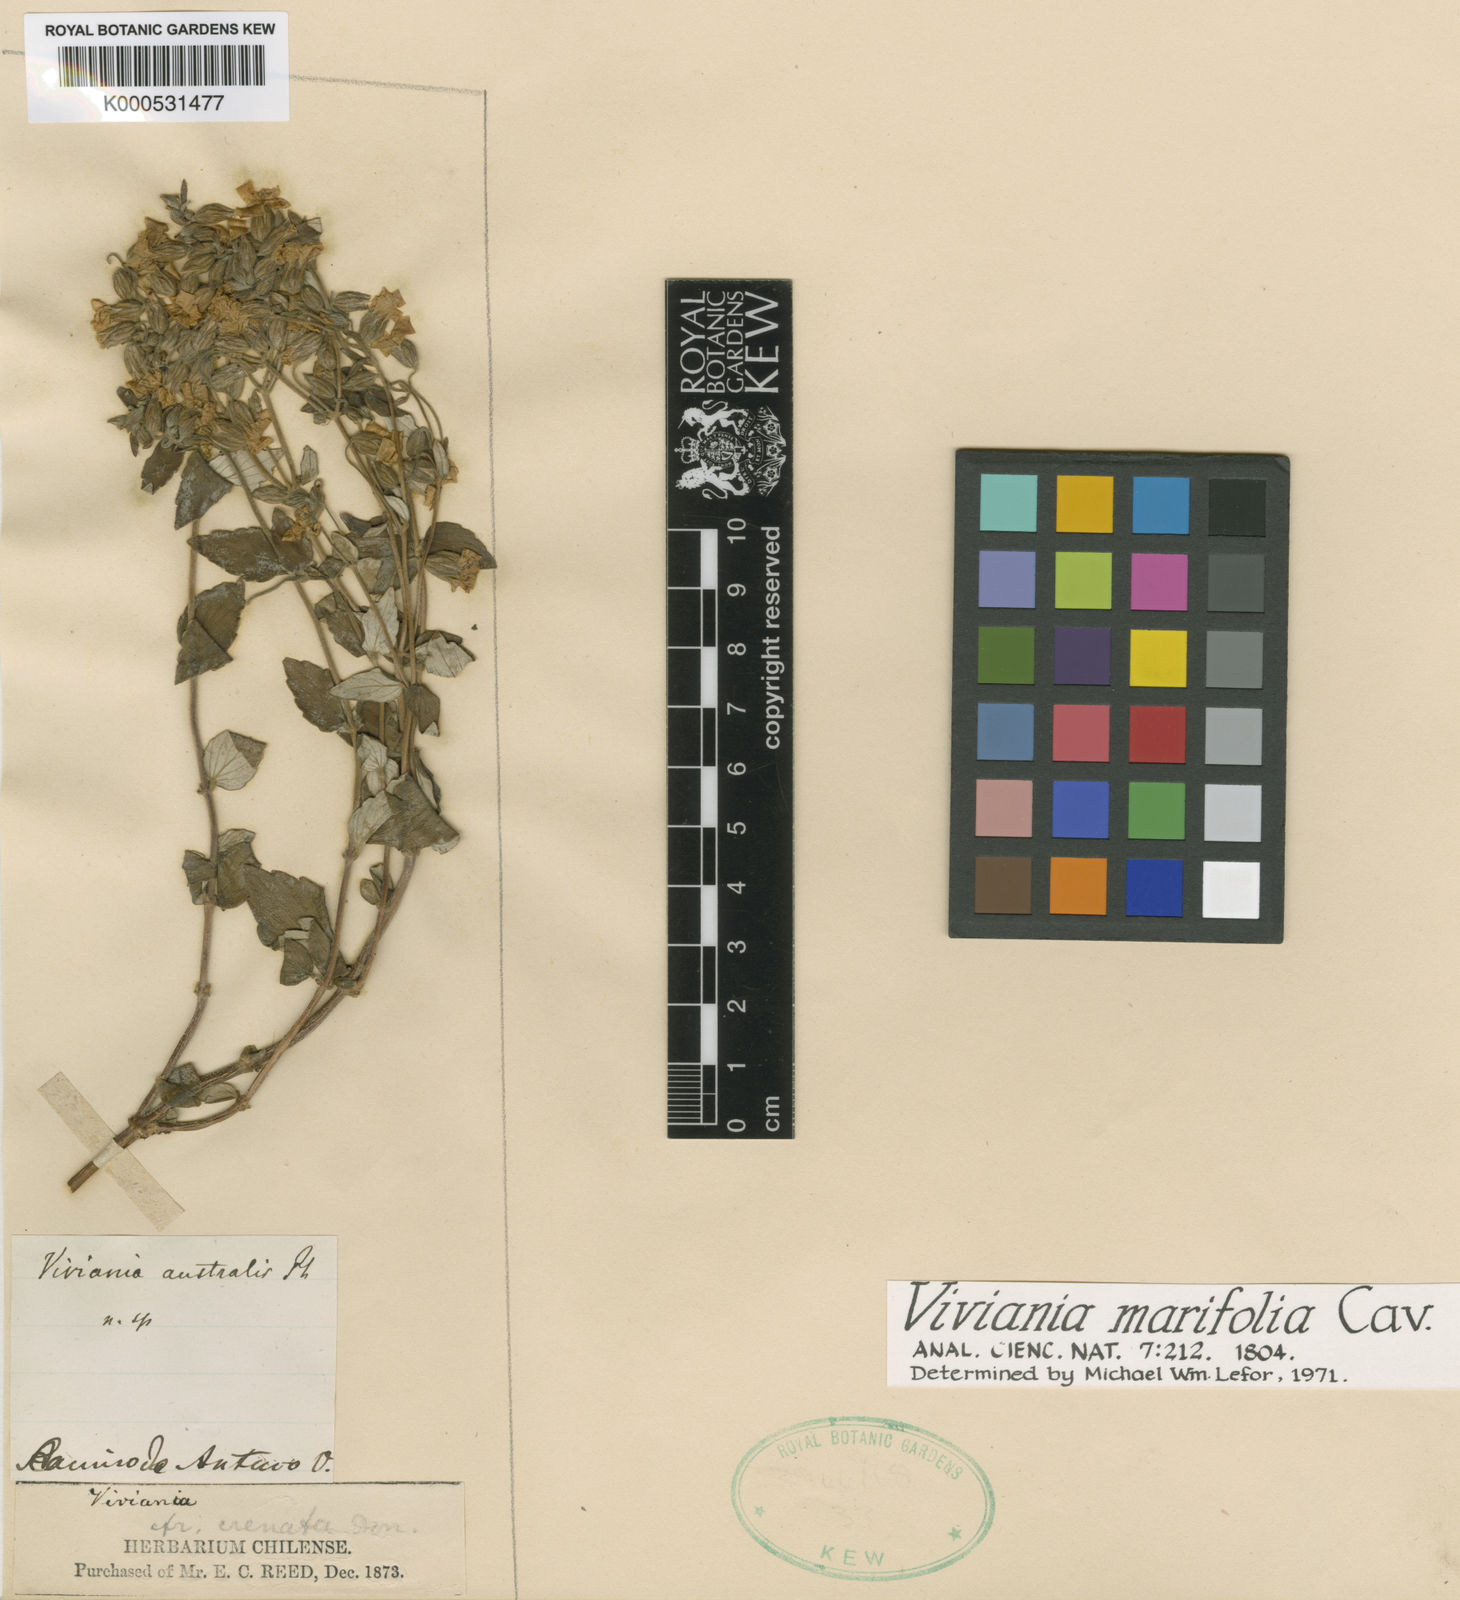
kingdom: Plantae
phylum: Tracheophyta
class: Magnoliopsida
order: Geraniales
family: Vivianiaceae
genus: Viviania
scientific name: Viviania marifolia
